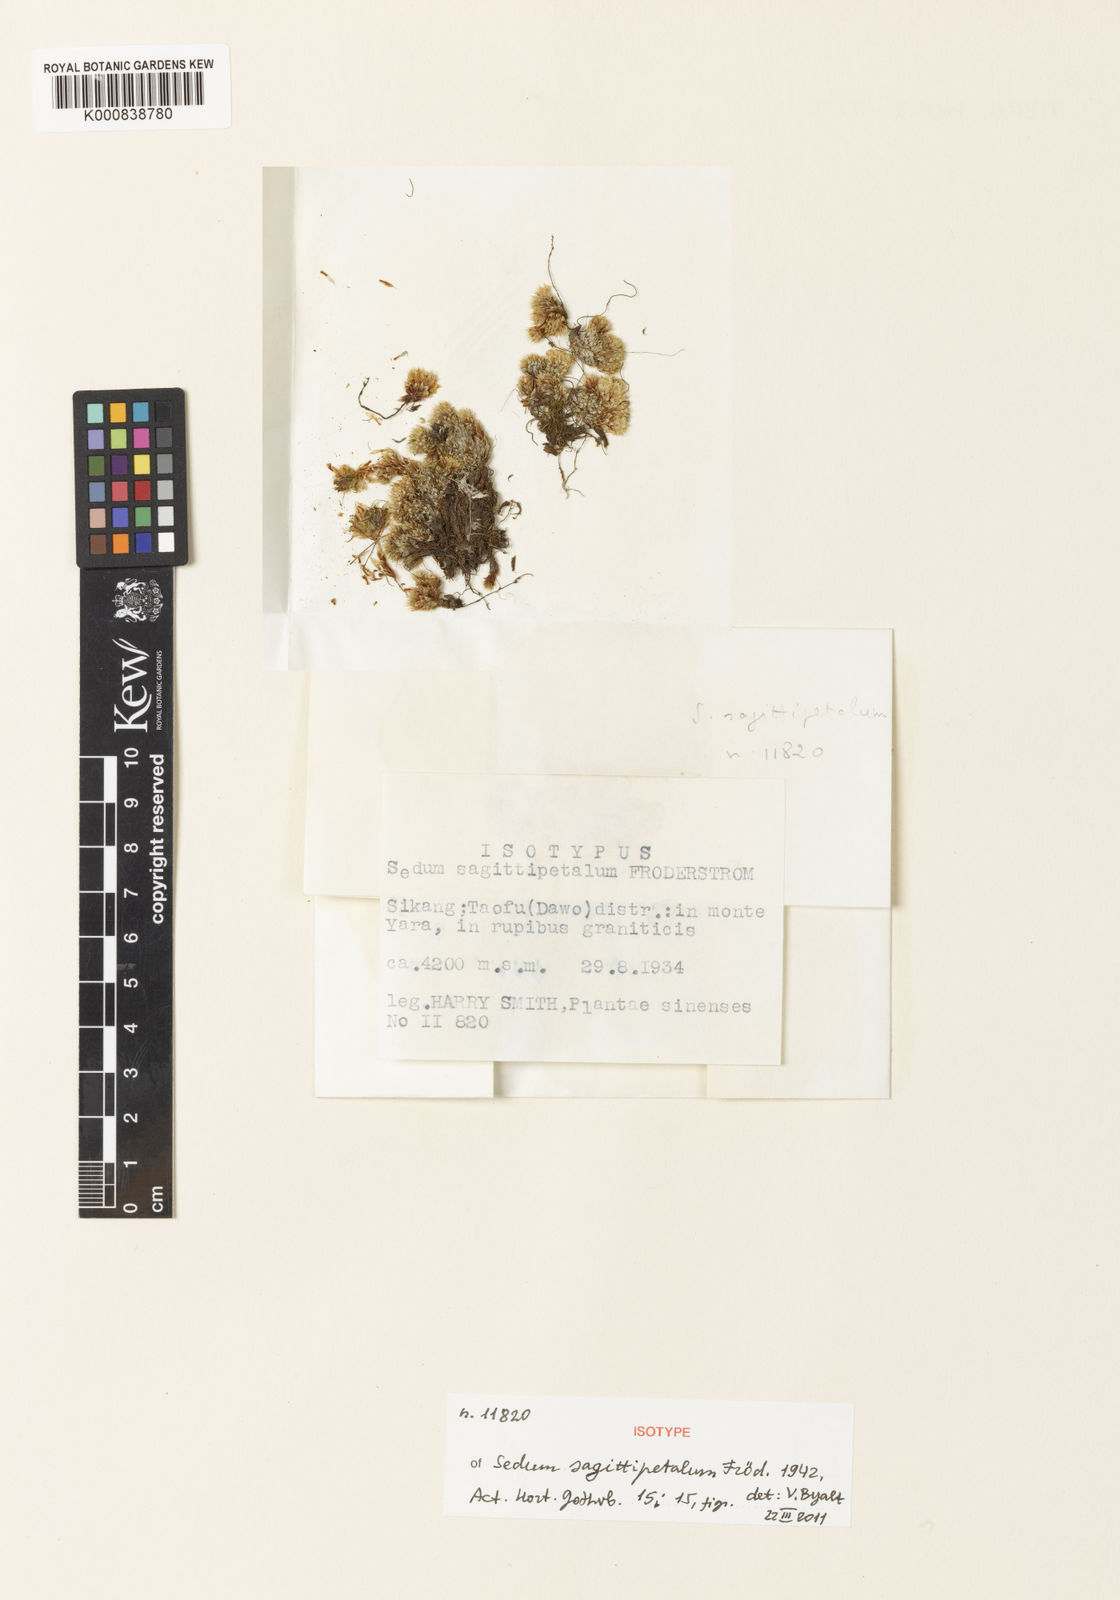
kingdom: Plantae
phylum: Tracheophyta
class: Magnoliopsida
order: Saxifragales
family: Crassulaceae
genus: Rhodiola
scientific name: Rhodiola macrocarpa
